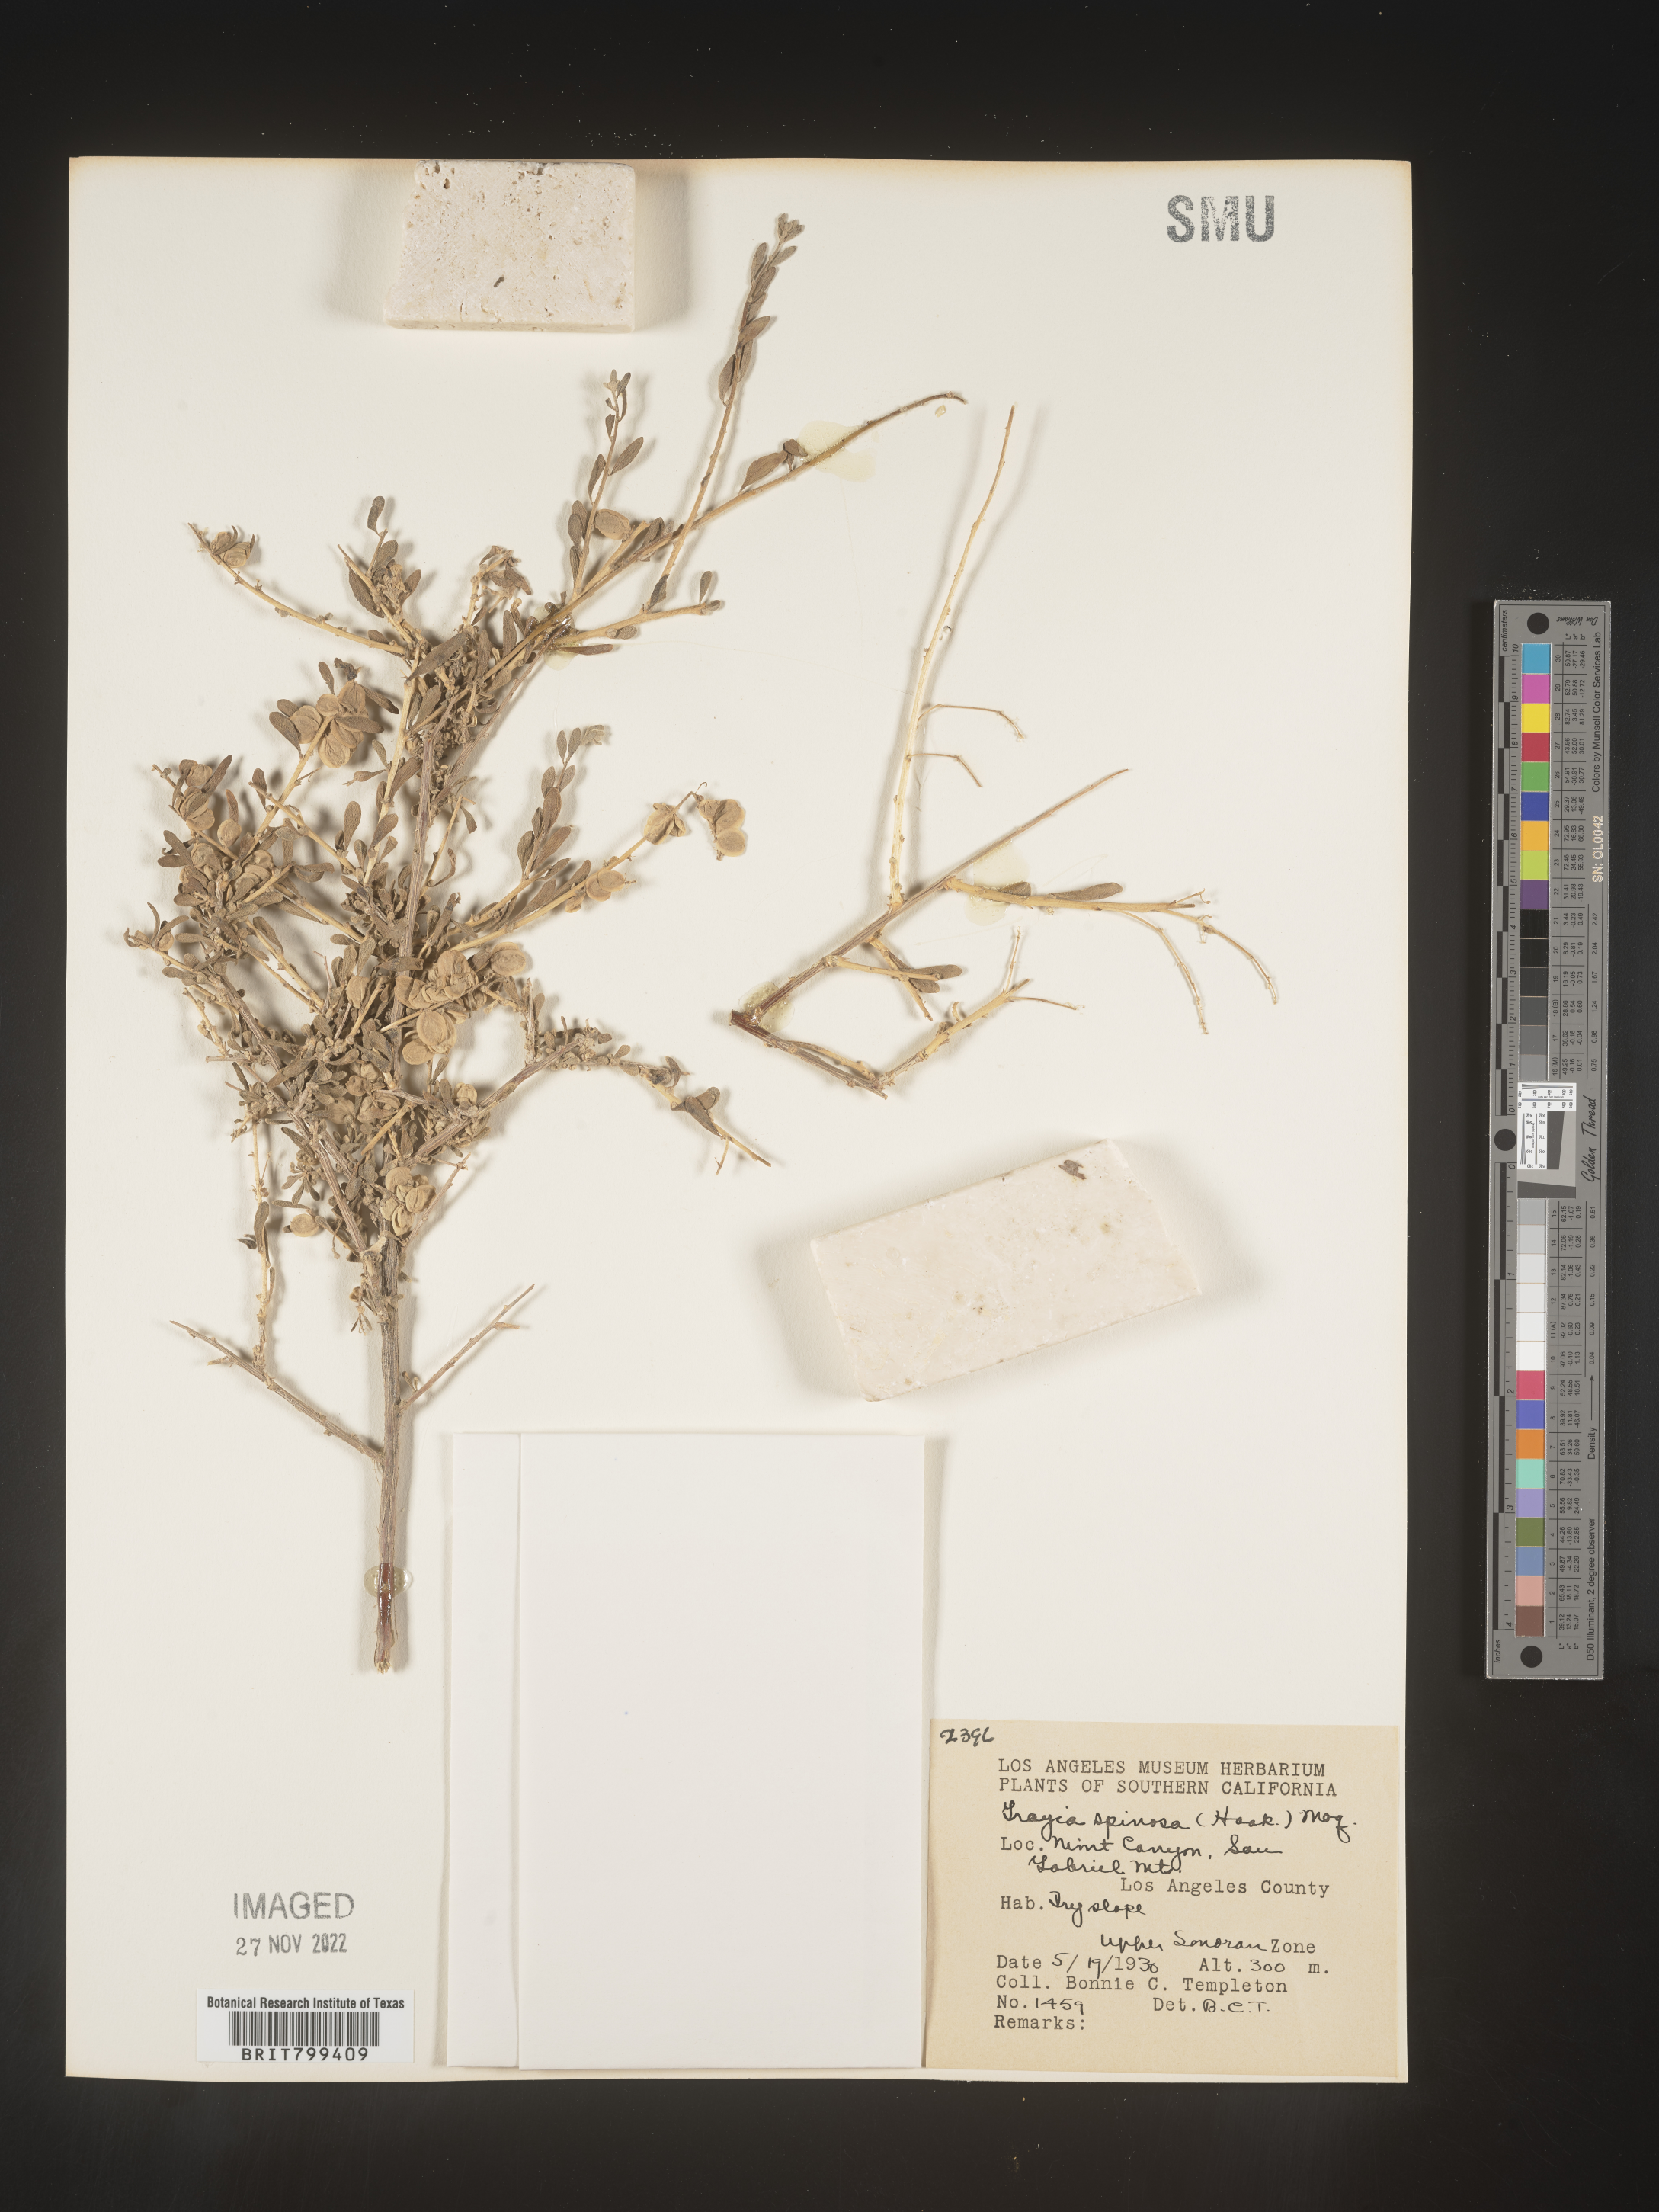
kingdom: Plantae
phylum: Tracheophyta
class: Magnoliopsida
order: Caryophyllales
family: Amaranthaceae
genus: Grayia
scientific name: Grayia spinosa
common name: Spiny hopsage
